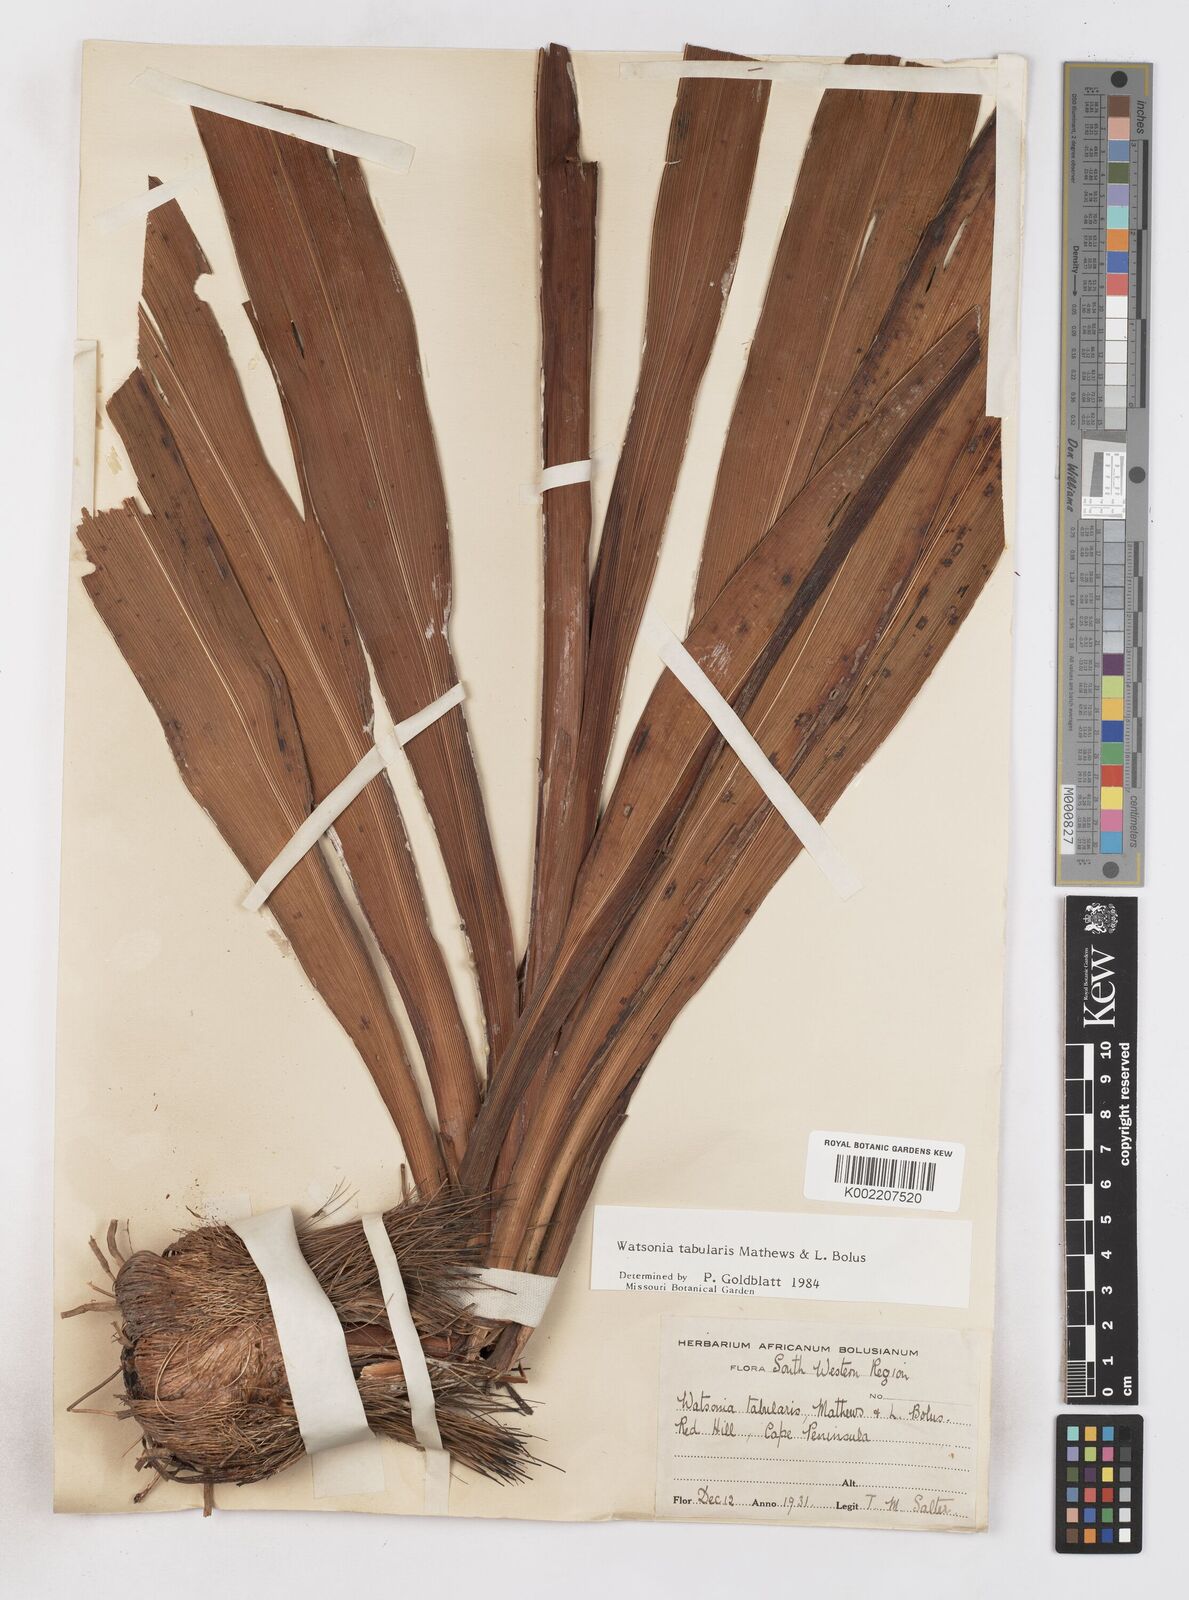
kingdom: Plantae
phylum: Tracheophyta
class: Liliopsida
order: Asparagales
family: Iridaceae
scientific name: Iridaceae
